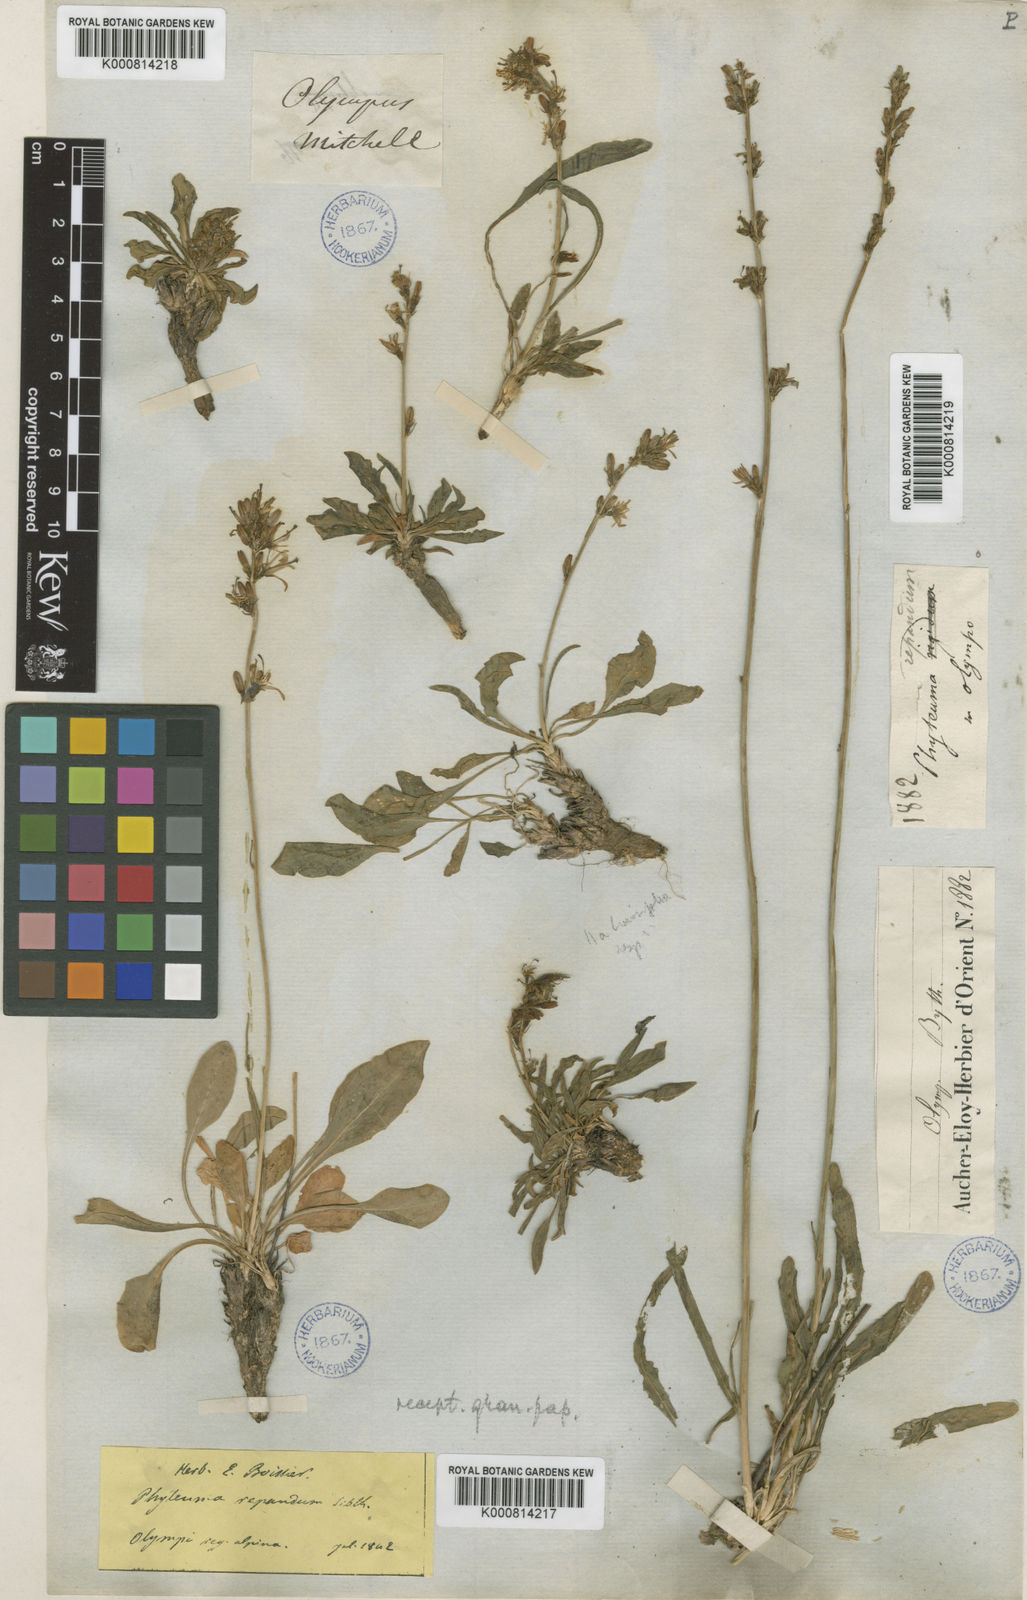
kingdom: Plantae
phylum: Tracheophyta
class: Magnoliopsida
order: Asterales
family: Campanulaceae
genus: Asyneuma
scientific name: Asyneuma limonifolium
